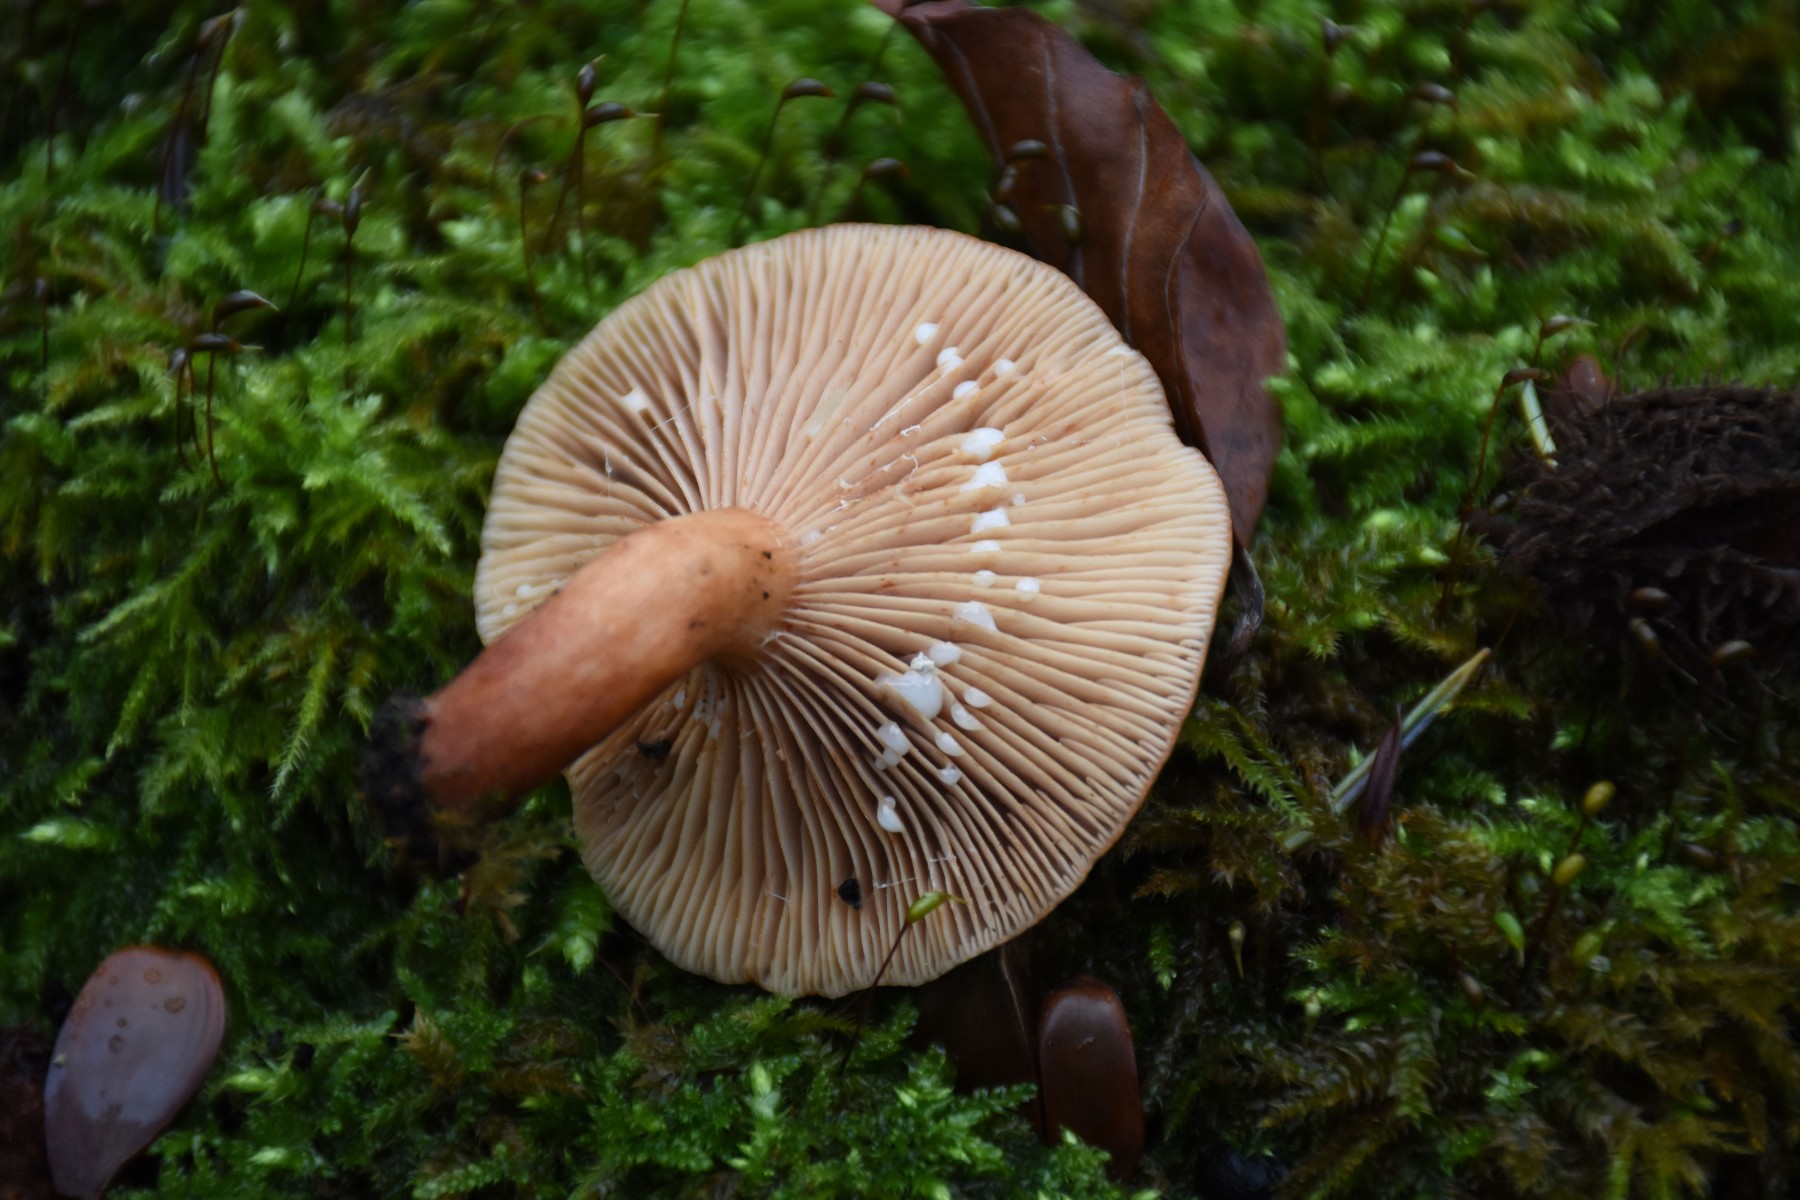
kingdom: Fungi
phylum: Basidiomycota
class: Agaricomycetes
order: Russulales
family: Russulaceae
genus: Lactarius
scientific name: Lactarius subdulcis
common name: sødlig mælkehat
